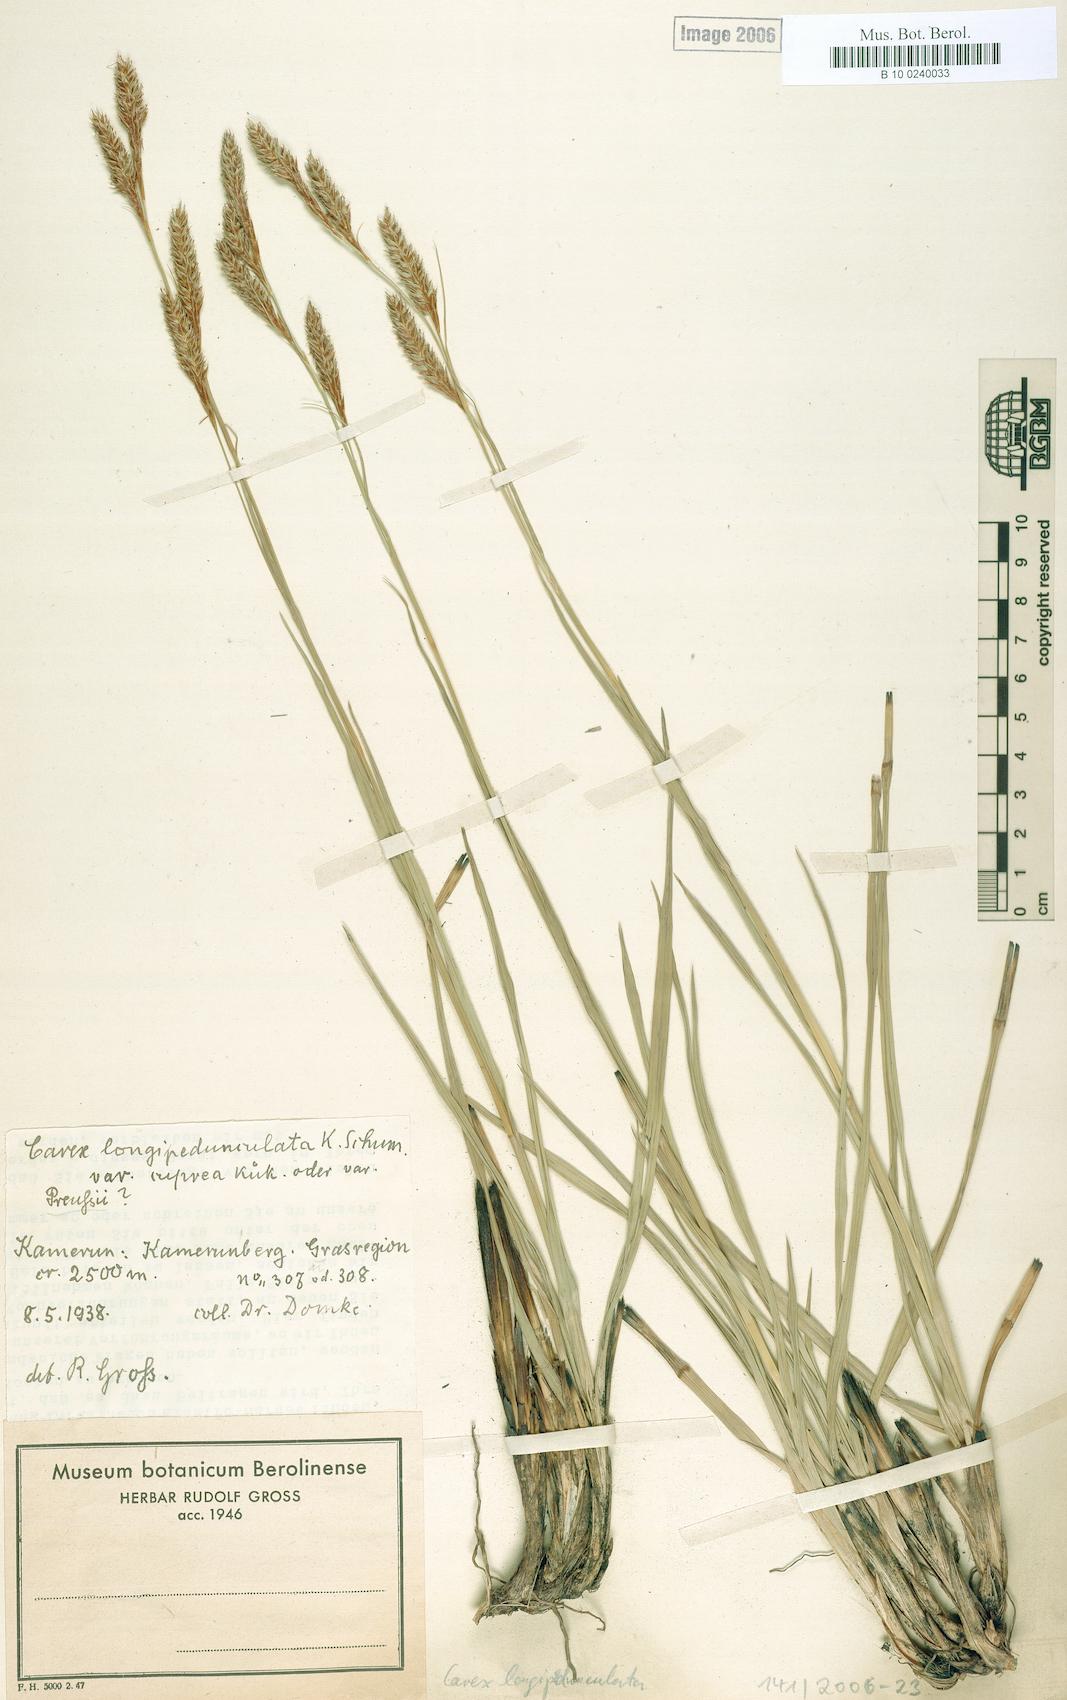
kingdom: Plantae
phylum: Tracheophyta
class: Liliopsida
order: Poales
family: Cyperaceae
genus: Carex
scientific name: Carex petitiana
